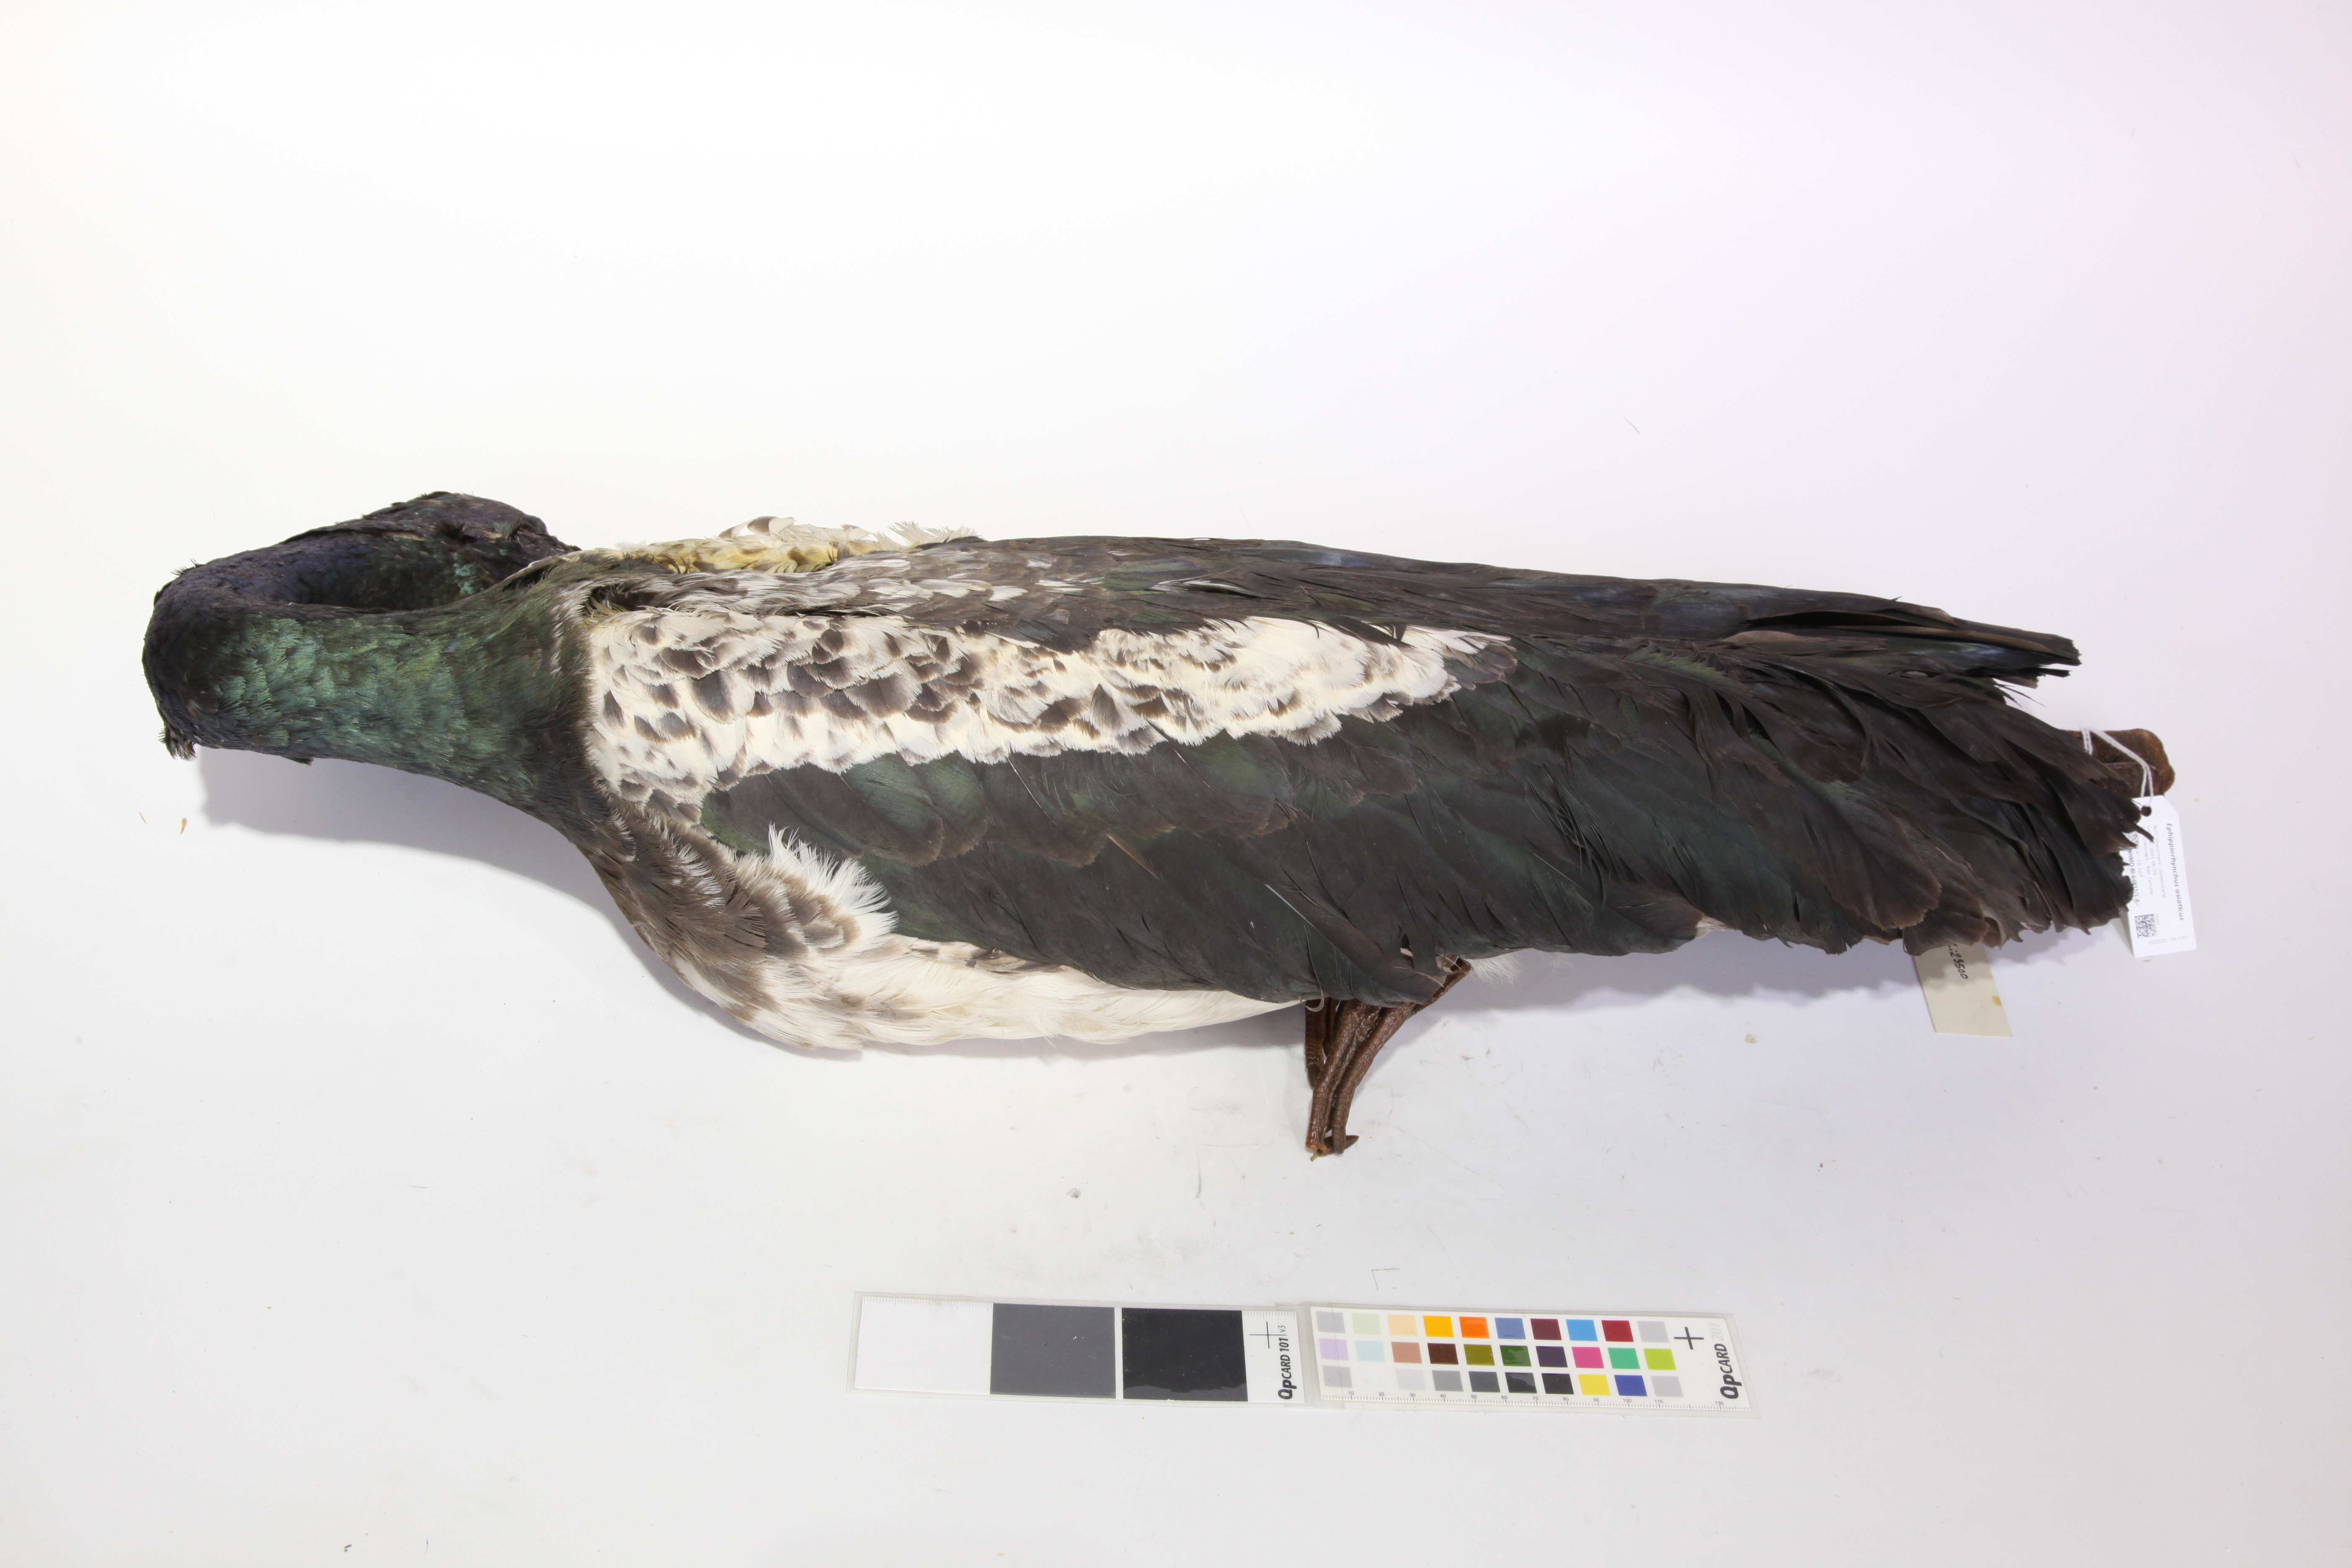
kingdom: Animalia
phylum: Chordata
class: Aves
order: Ciconiiformes
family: Ciconiidae
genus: Ephippiorhynchus
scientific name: Ephippiorhynchus asiaticus
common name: Black-necked stork
